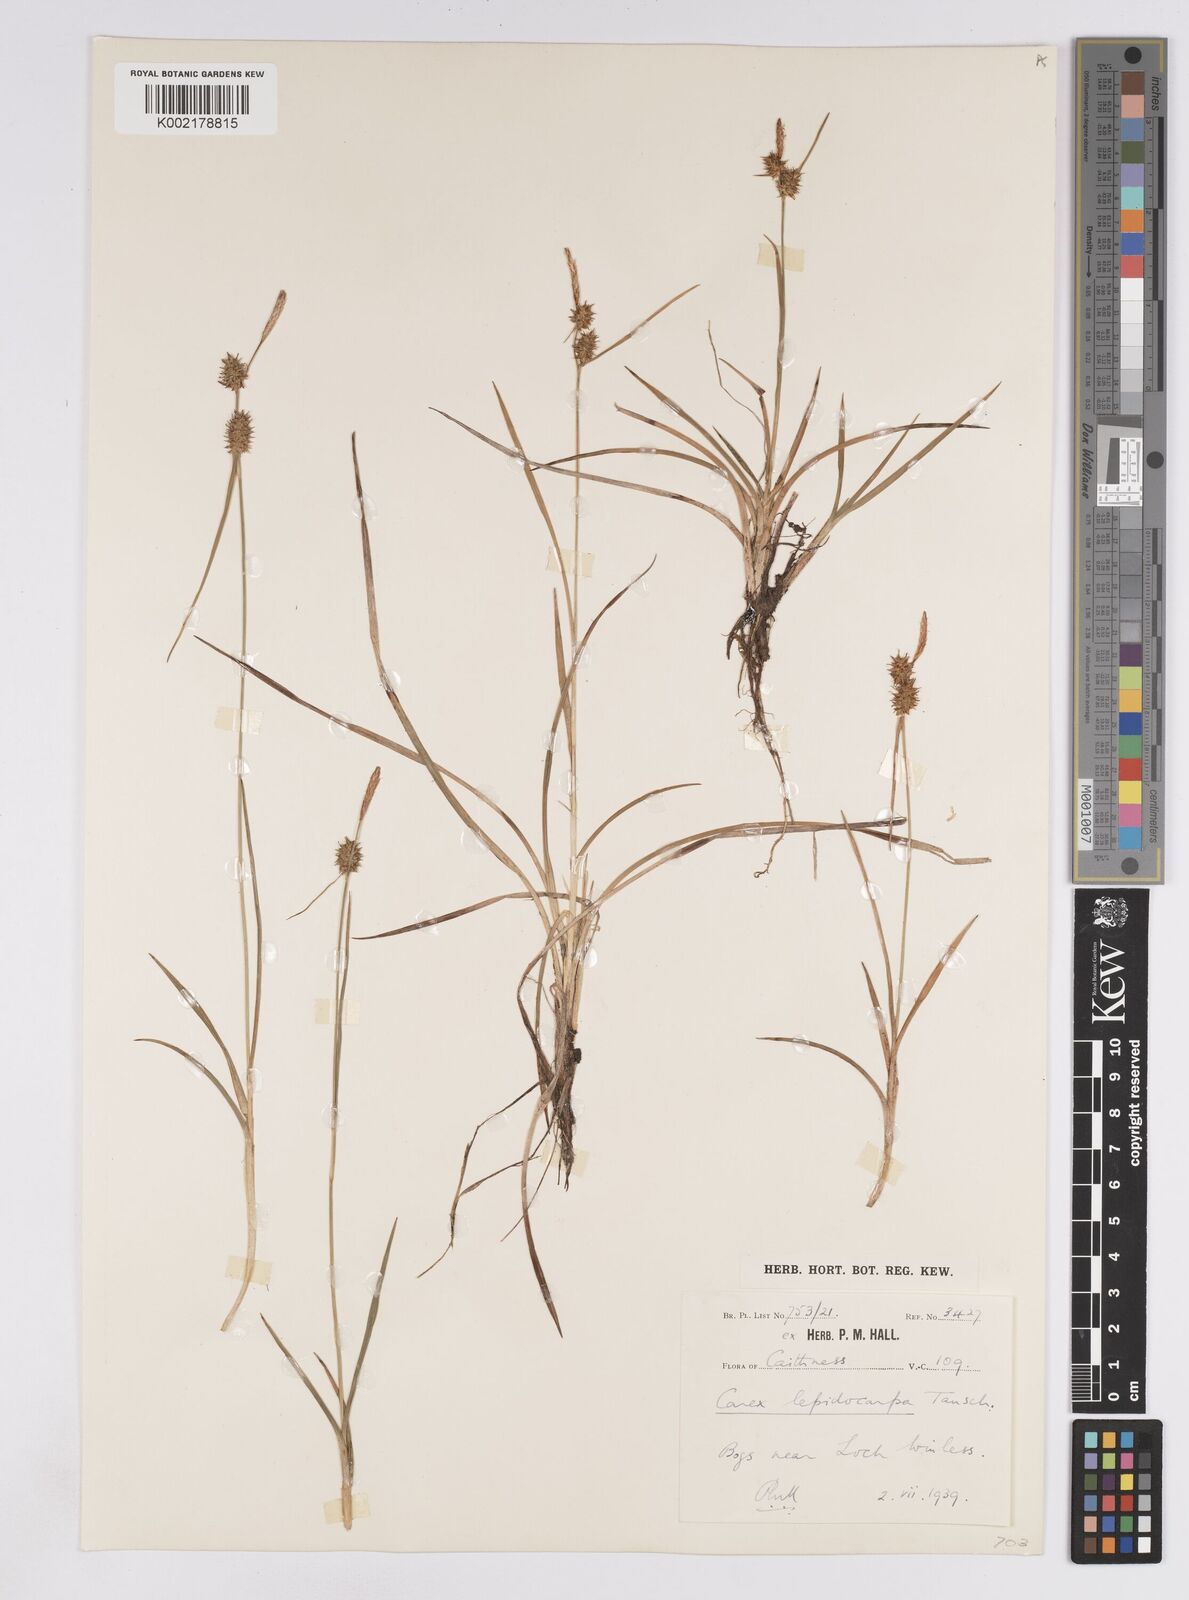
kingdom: Plantae
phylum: Tracheophyta
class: Liliopsida
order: Poales
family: Cyperaceae
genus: Carex
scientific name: Carex lepidocarpa
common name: Long-stalked yellow-sedge
